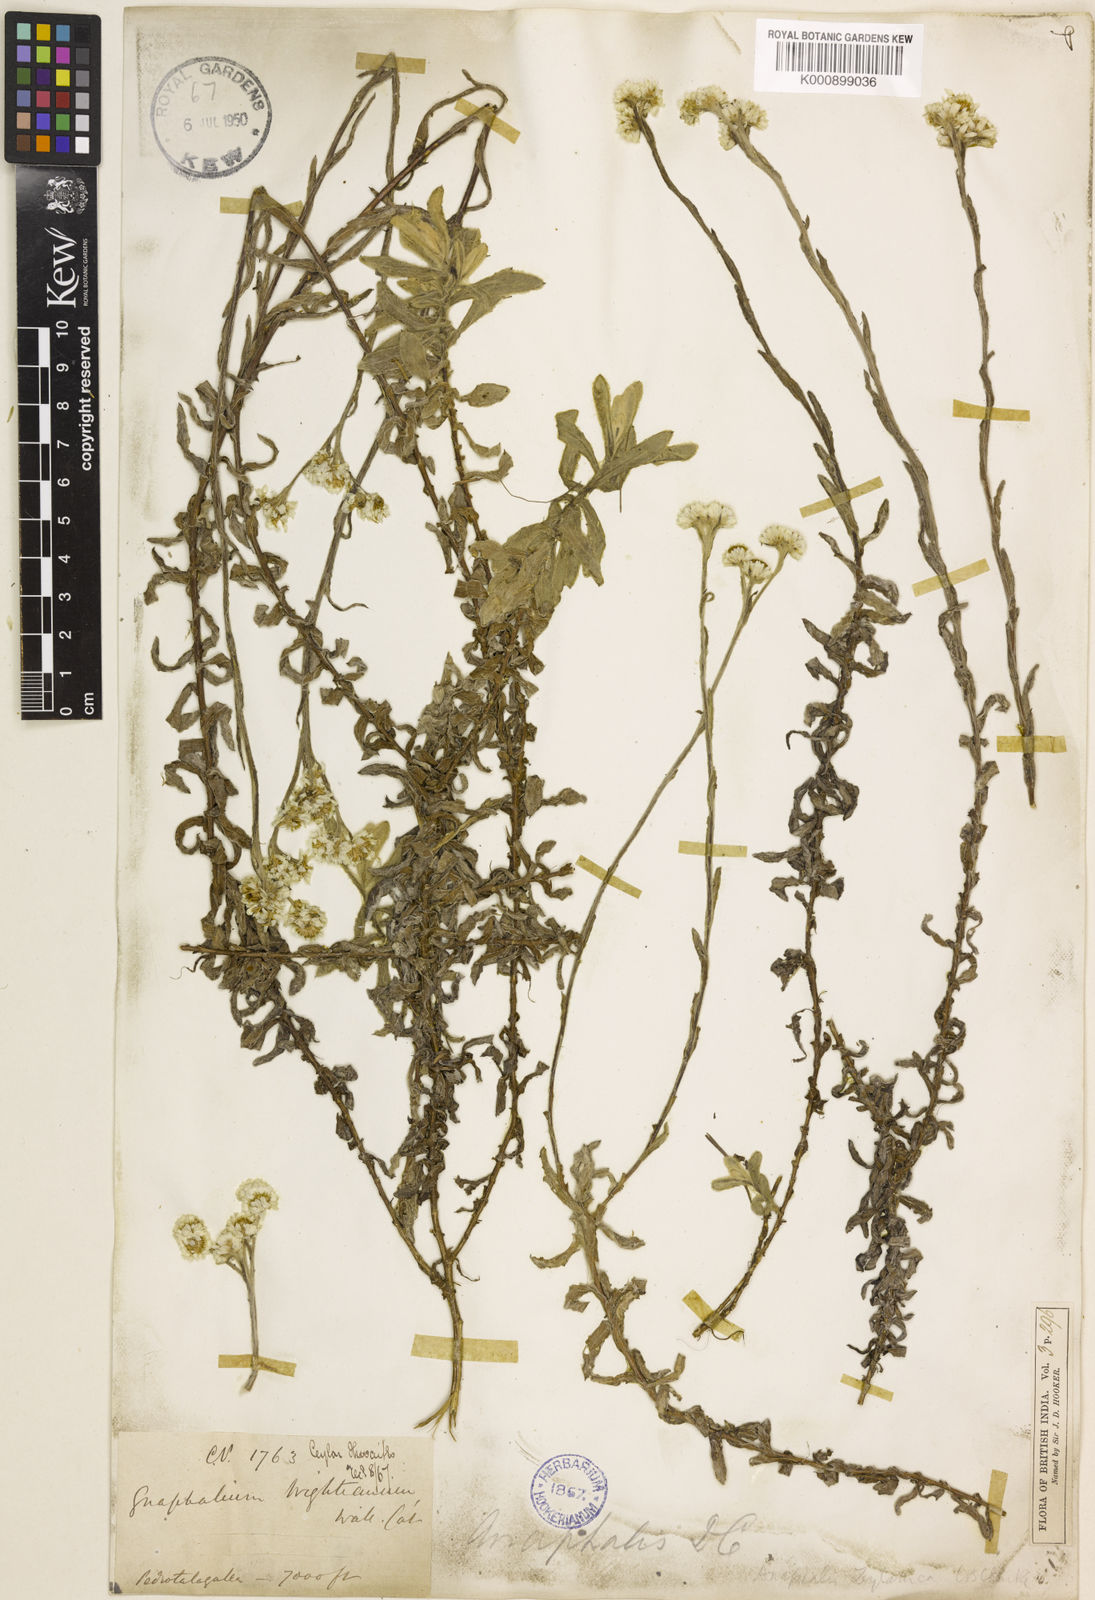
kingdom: Plantae
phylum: Tracheophyta
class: Magnoliopsida
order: Asterales
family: Asteraceae
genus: Anaphalis
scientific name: Anaphalis zeylanica
